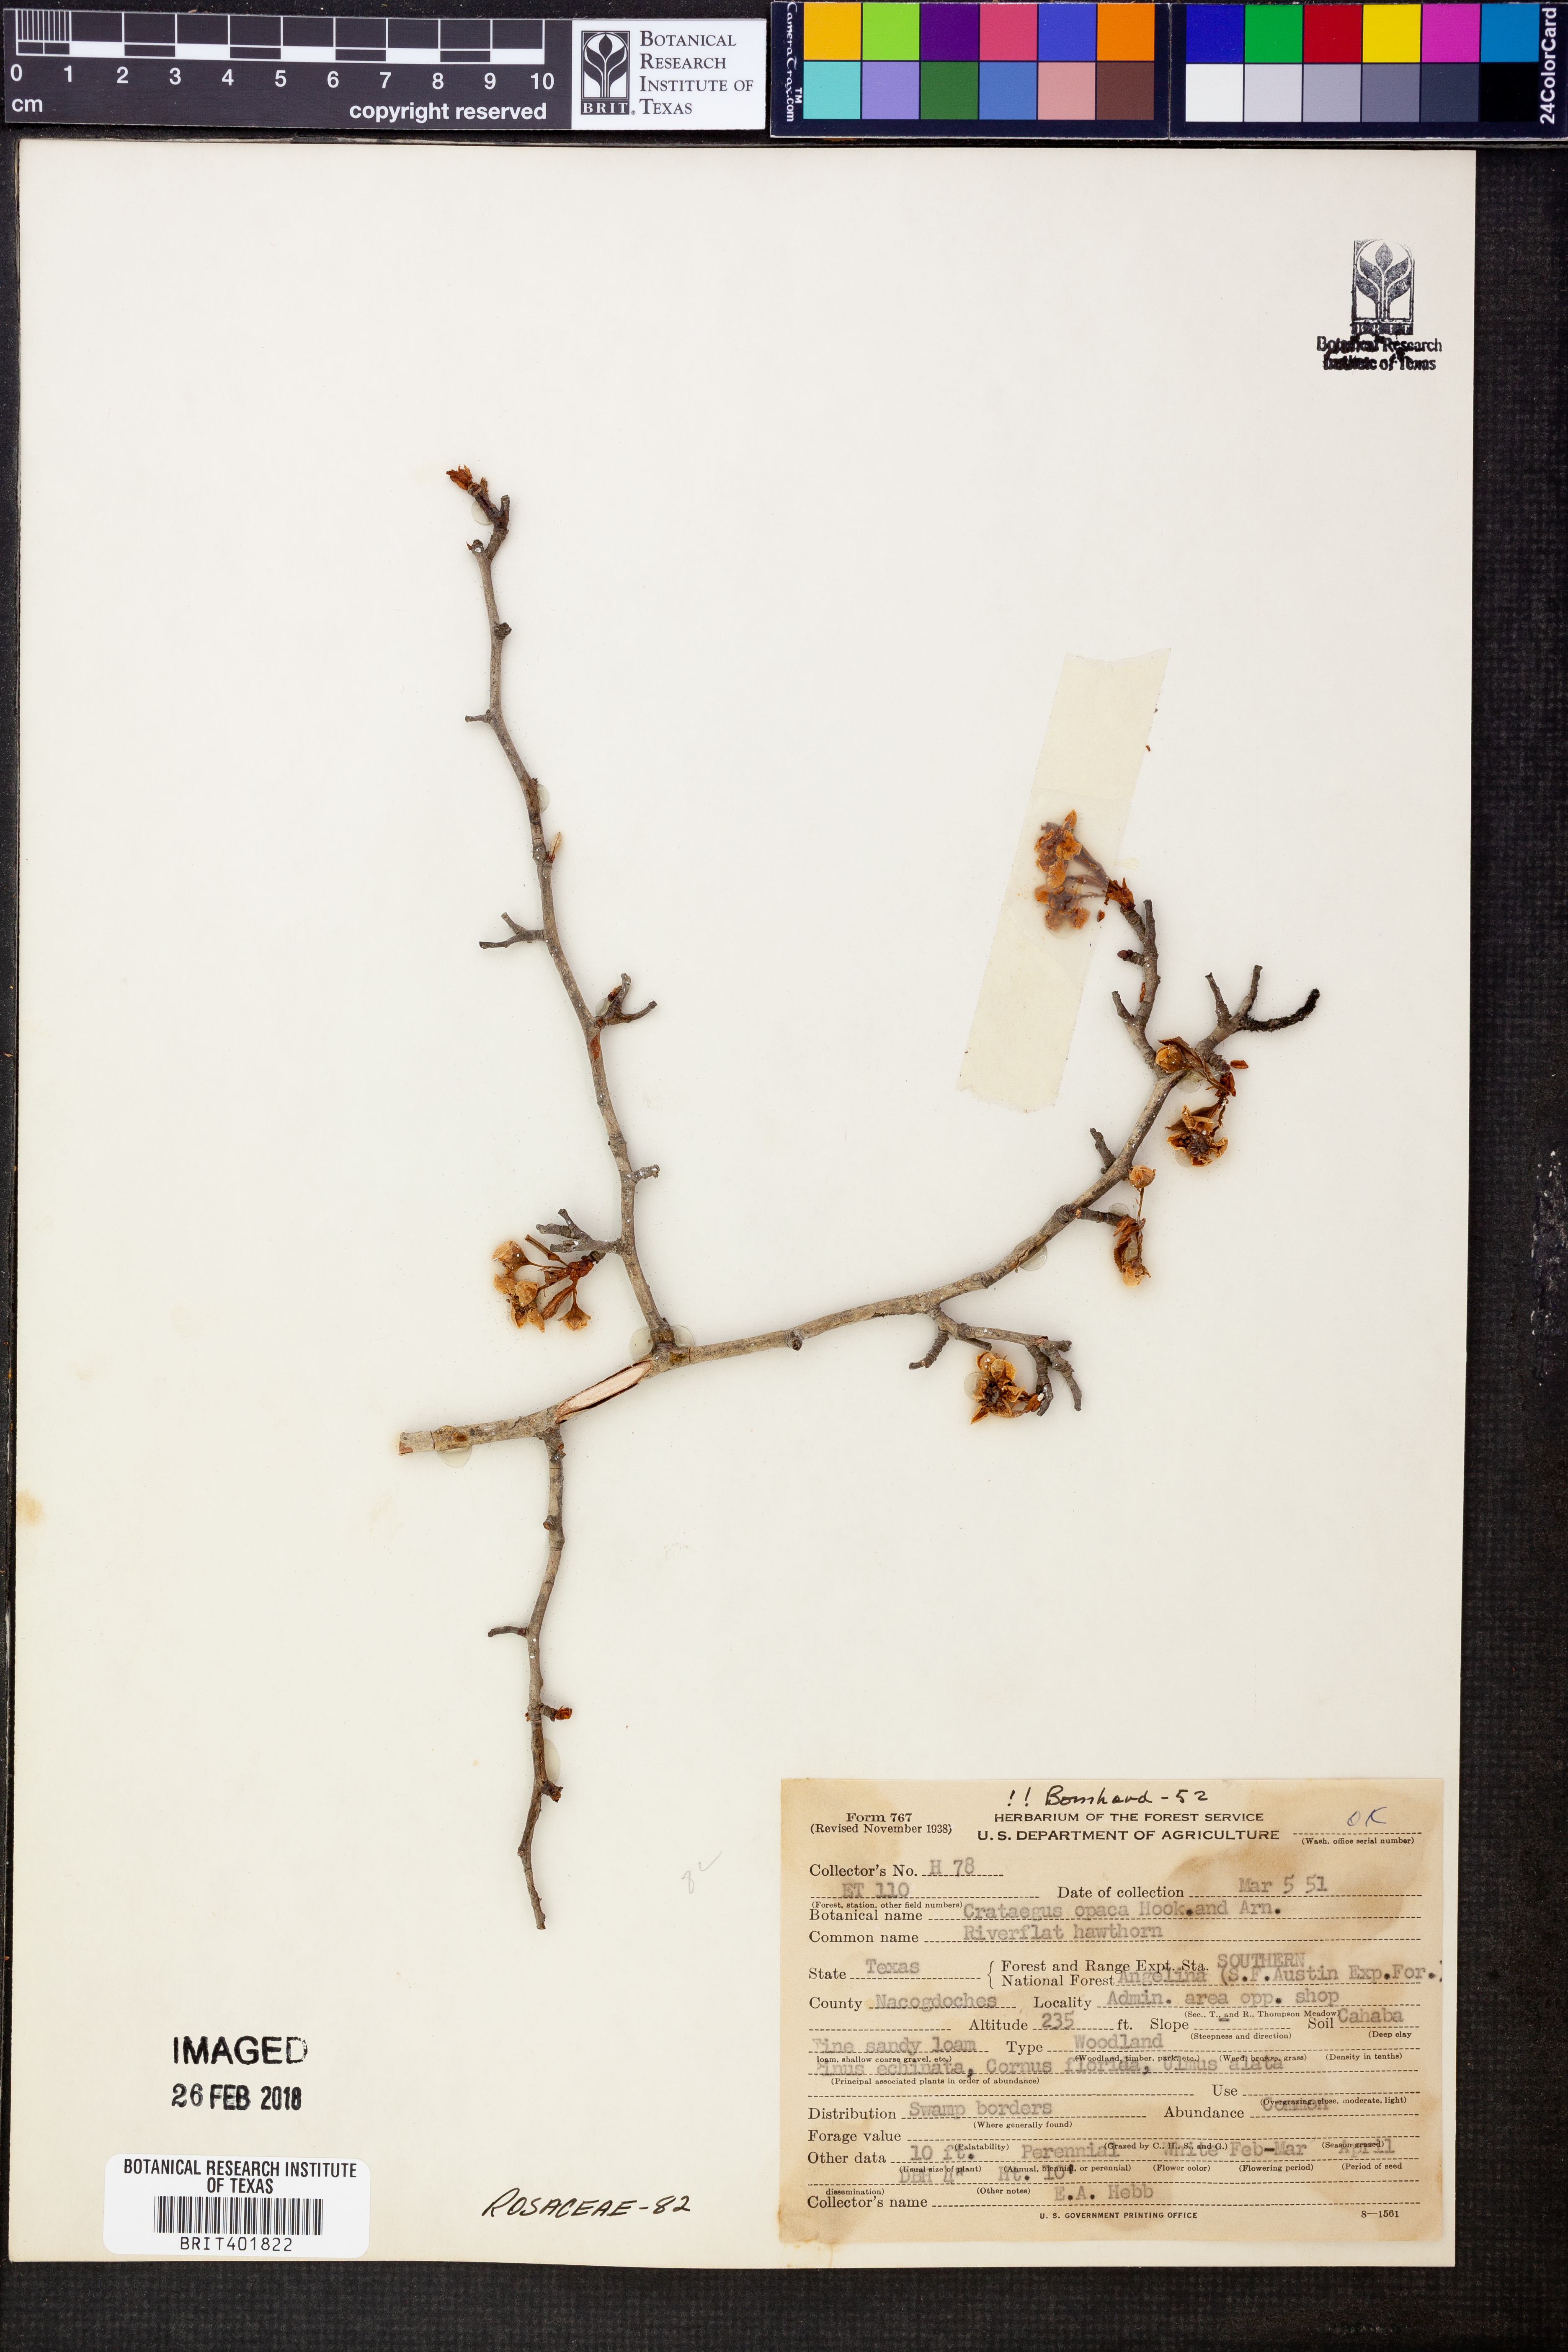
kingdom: Plantae
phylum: Tracheophyta
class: Magnoliopsida
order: Rosales
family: Rosaceae
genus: Crataegus
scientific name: Crataegus opaca
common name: Apple haw
